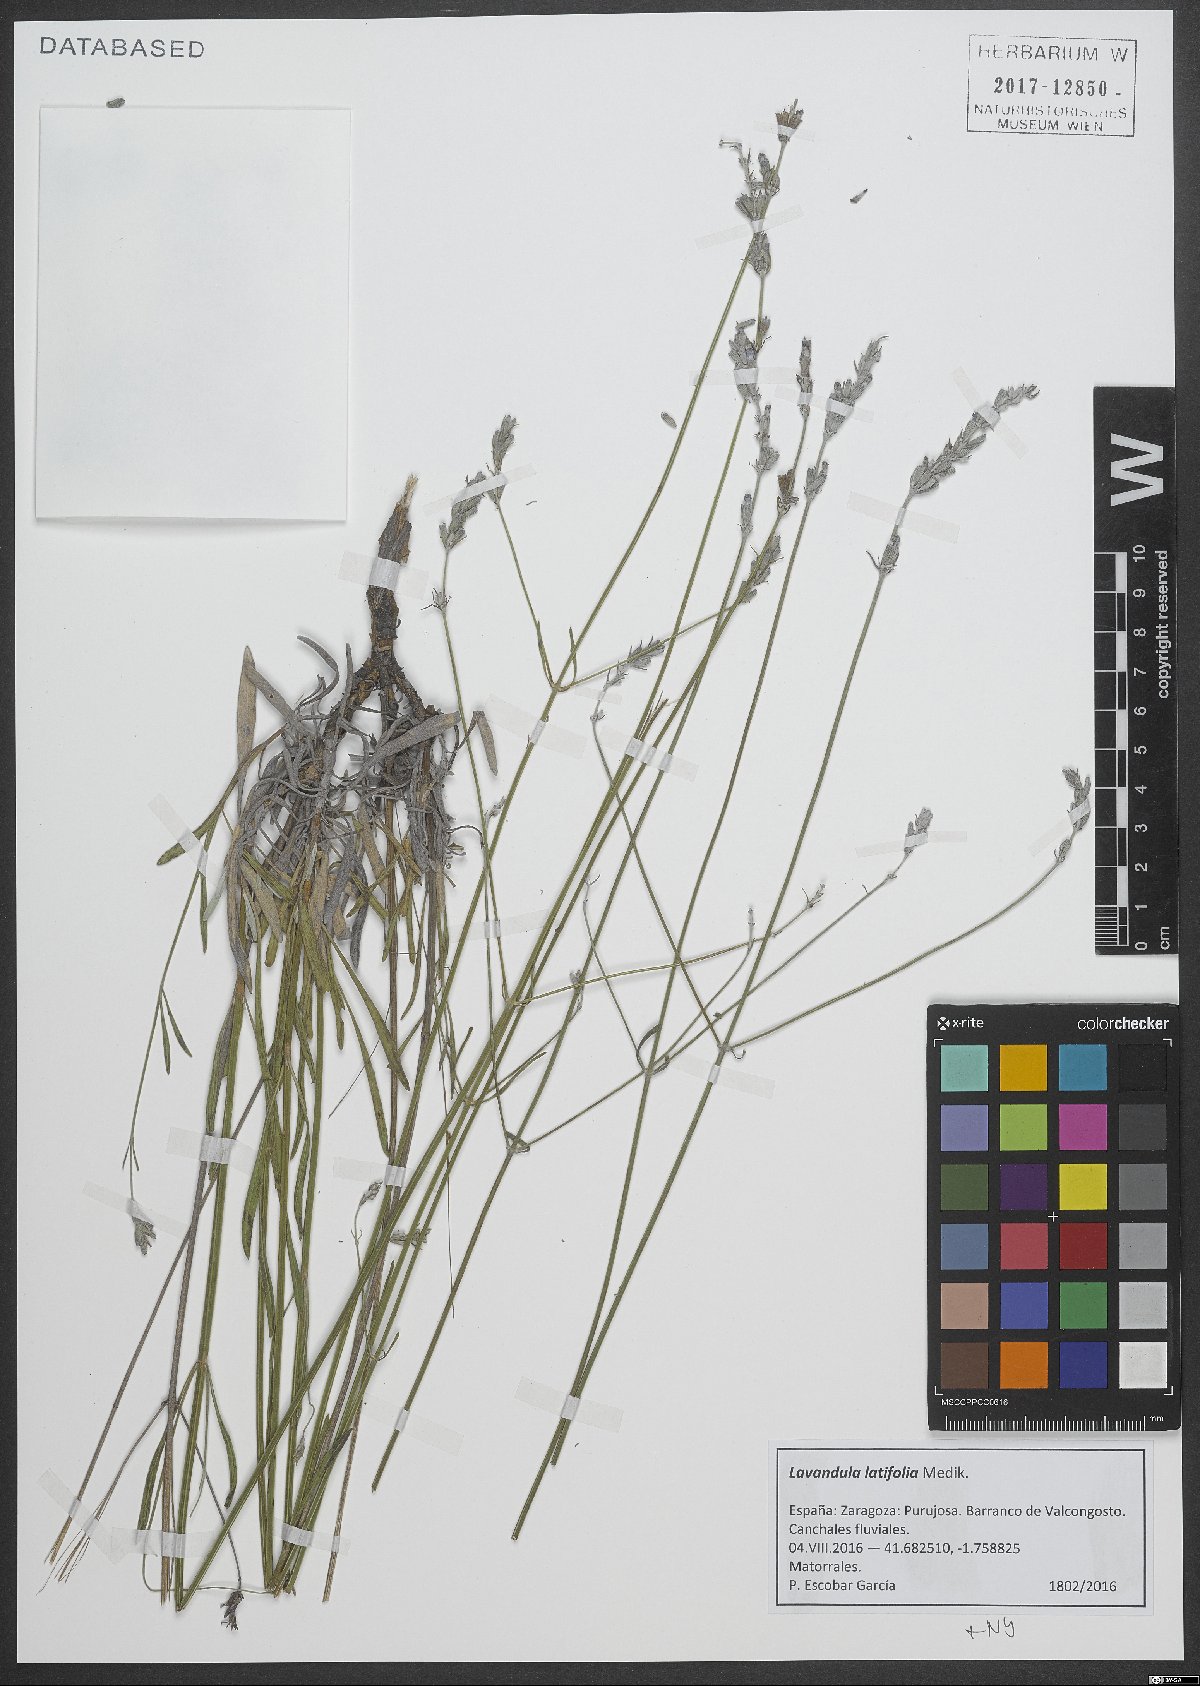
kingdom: Plantae
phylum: Tracheophyta
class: Magnoliopsida
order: Lamiales
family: Lamiaceae
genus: Lavandula
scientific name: Lavandula latifolia
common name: Spike lavendar
